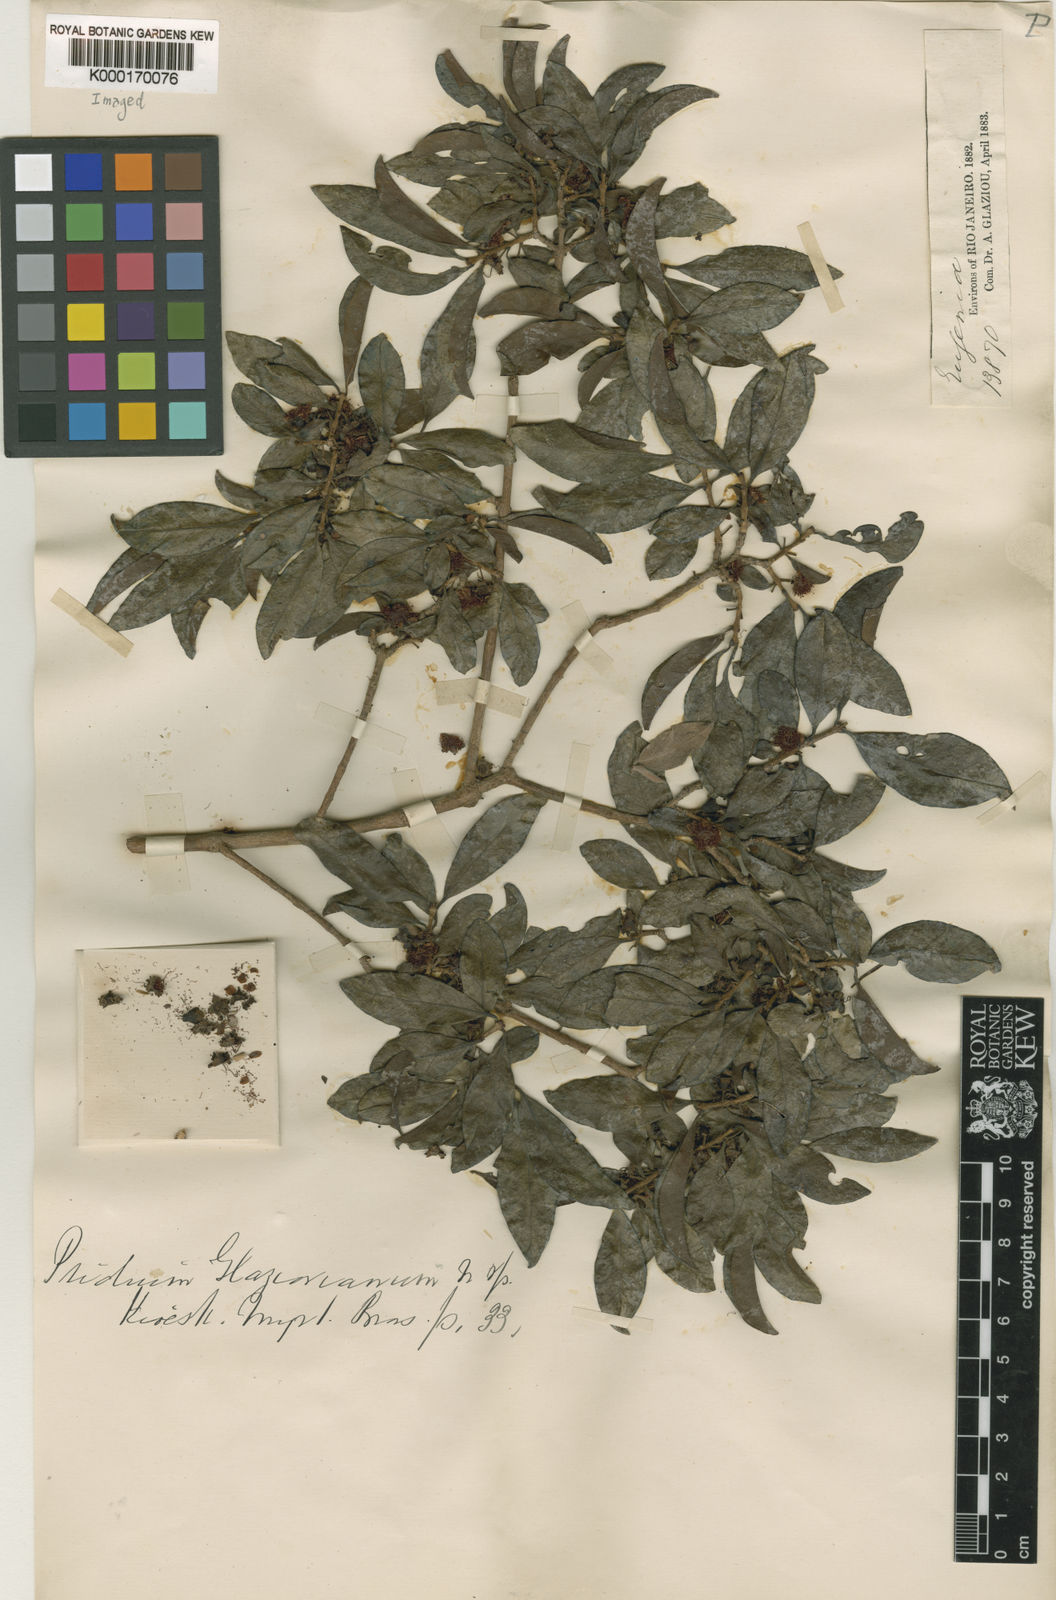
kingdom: Plantae
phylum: Tracheophyta
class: Magnoliopsida
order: Myrtales
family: Myrtaceae
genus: Psidium
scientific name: Psidium glaziovianum
